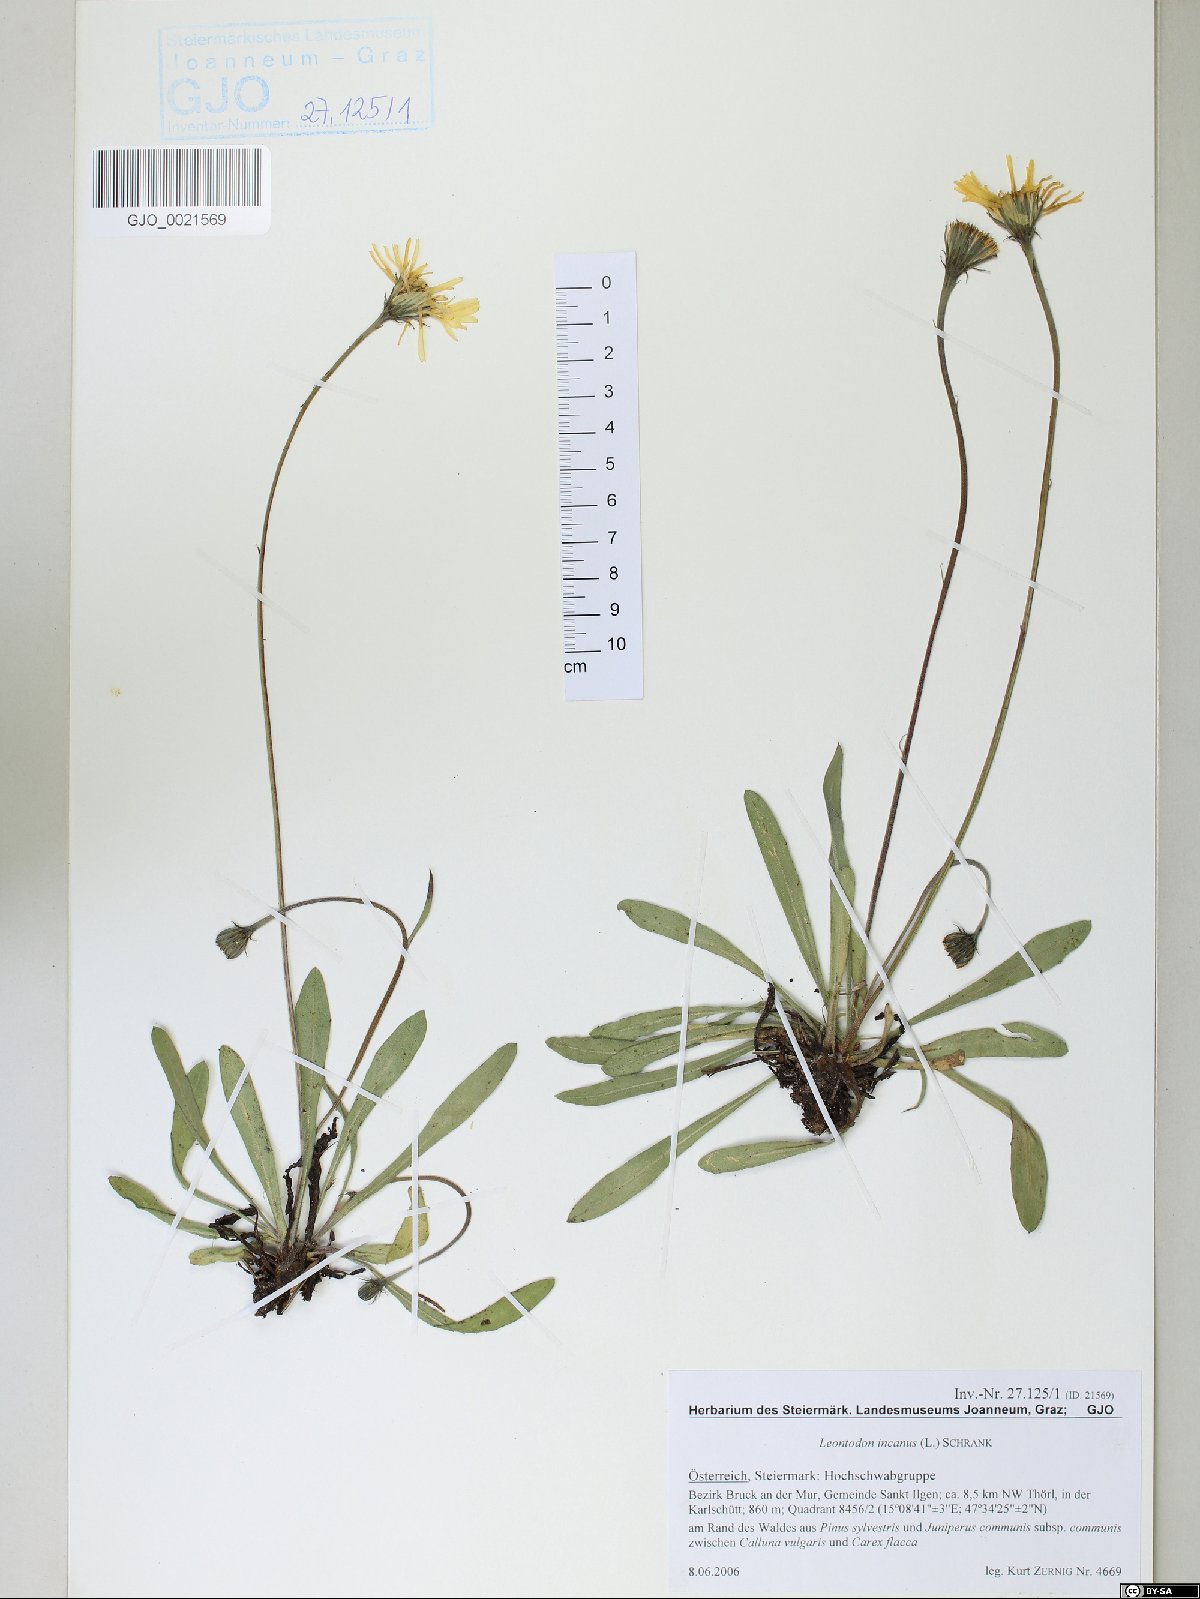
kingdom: Plantae
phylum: Tracheophyta
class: Magnoliopsida
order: Asterales
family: Asteraceae
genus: Leontodon
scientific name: Leontodon incanus
